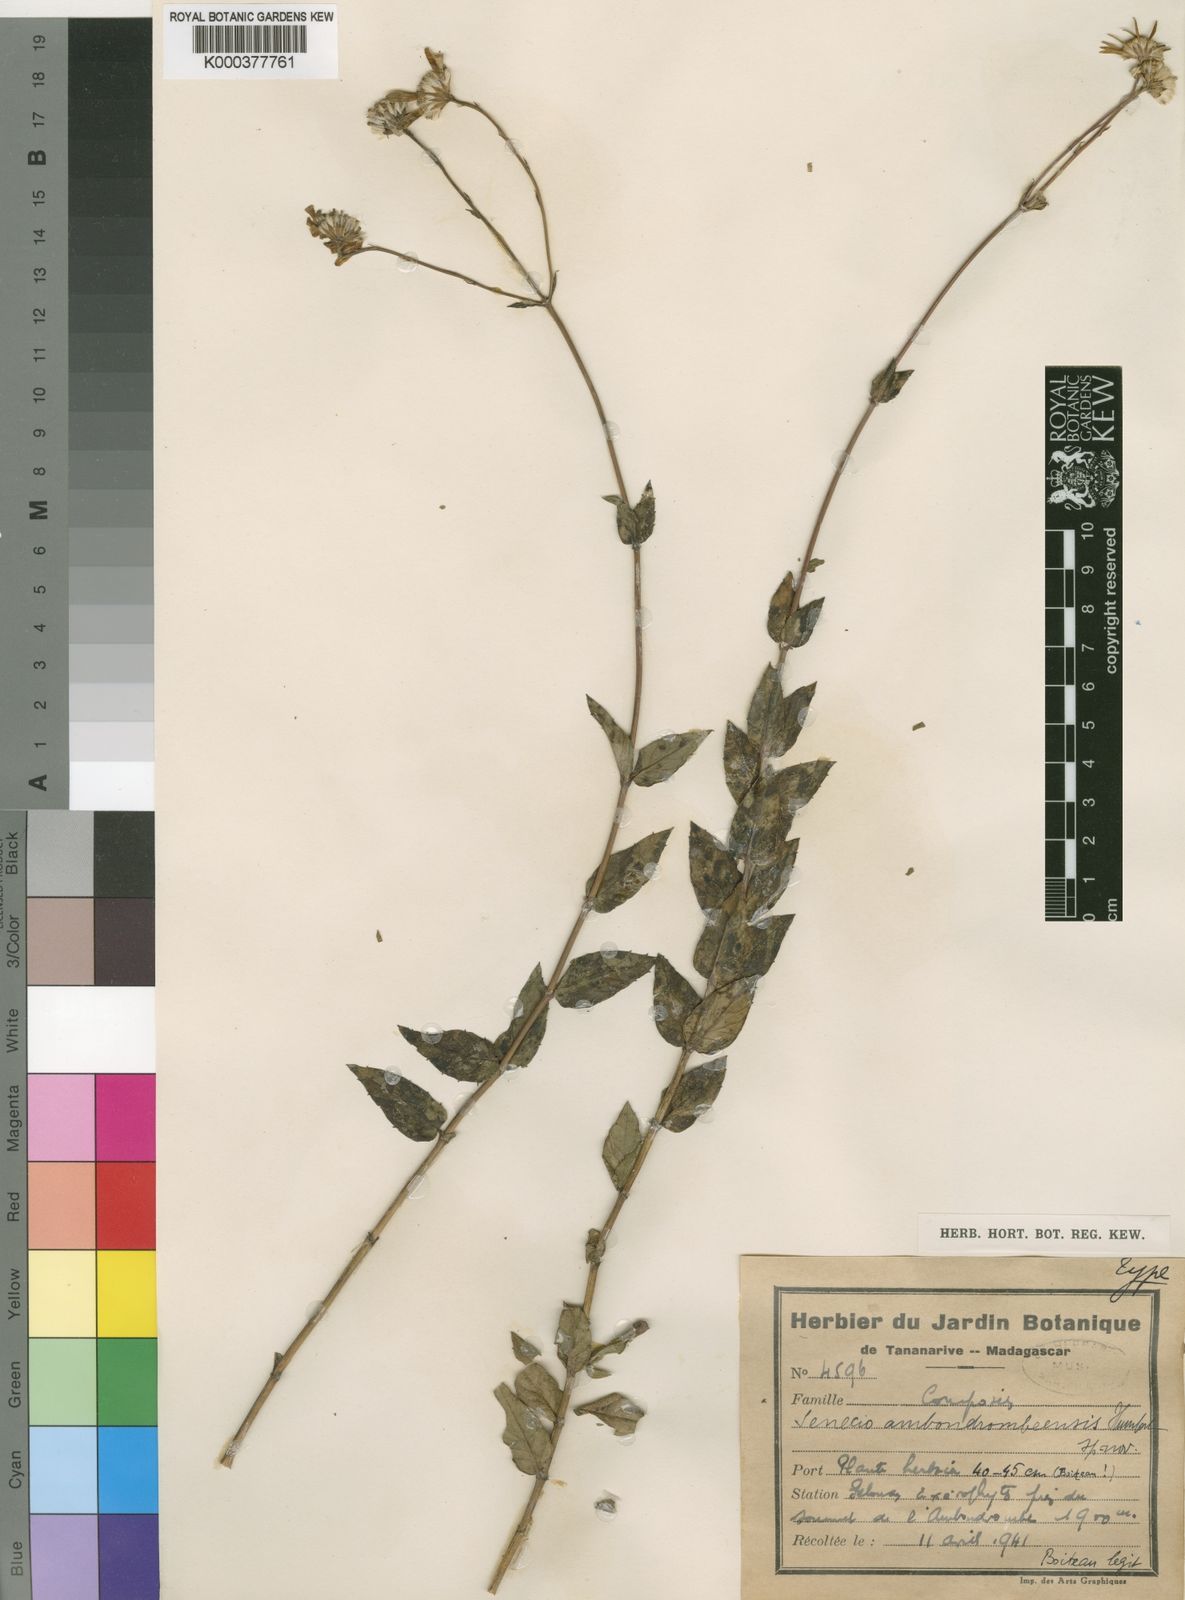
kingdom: Plantae
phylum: Tracheophyta
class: Magnoliopsida
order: Asterales
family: Asteraceae
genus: Io
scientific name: Io ambondrombeensis
